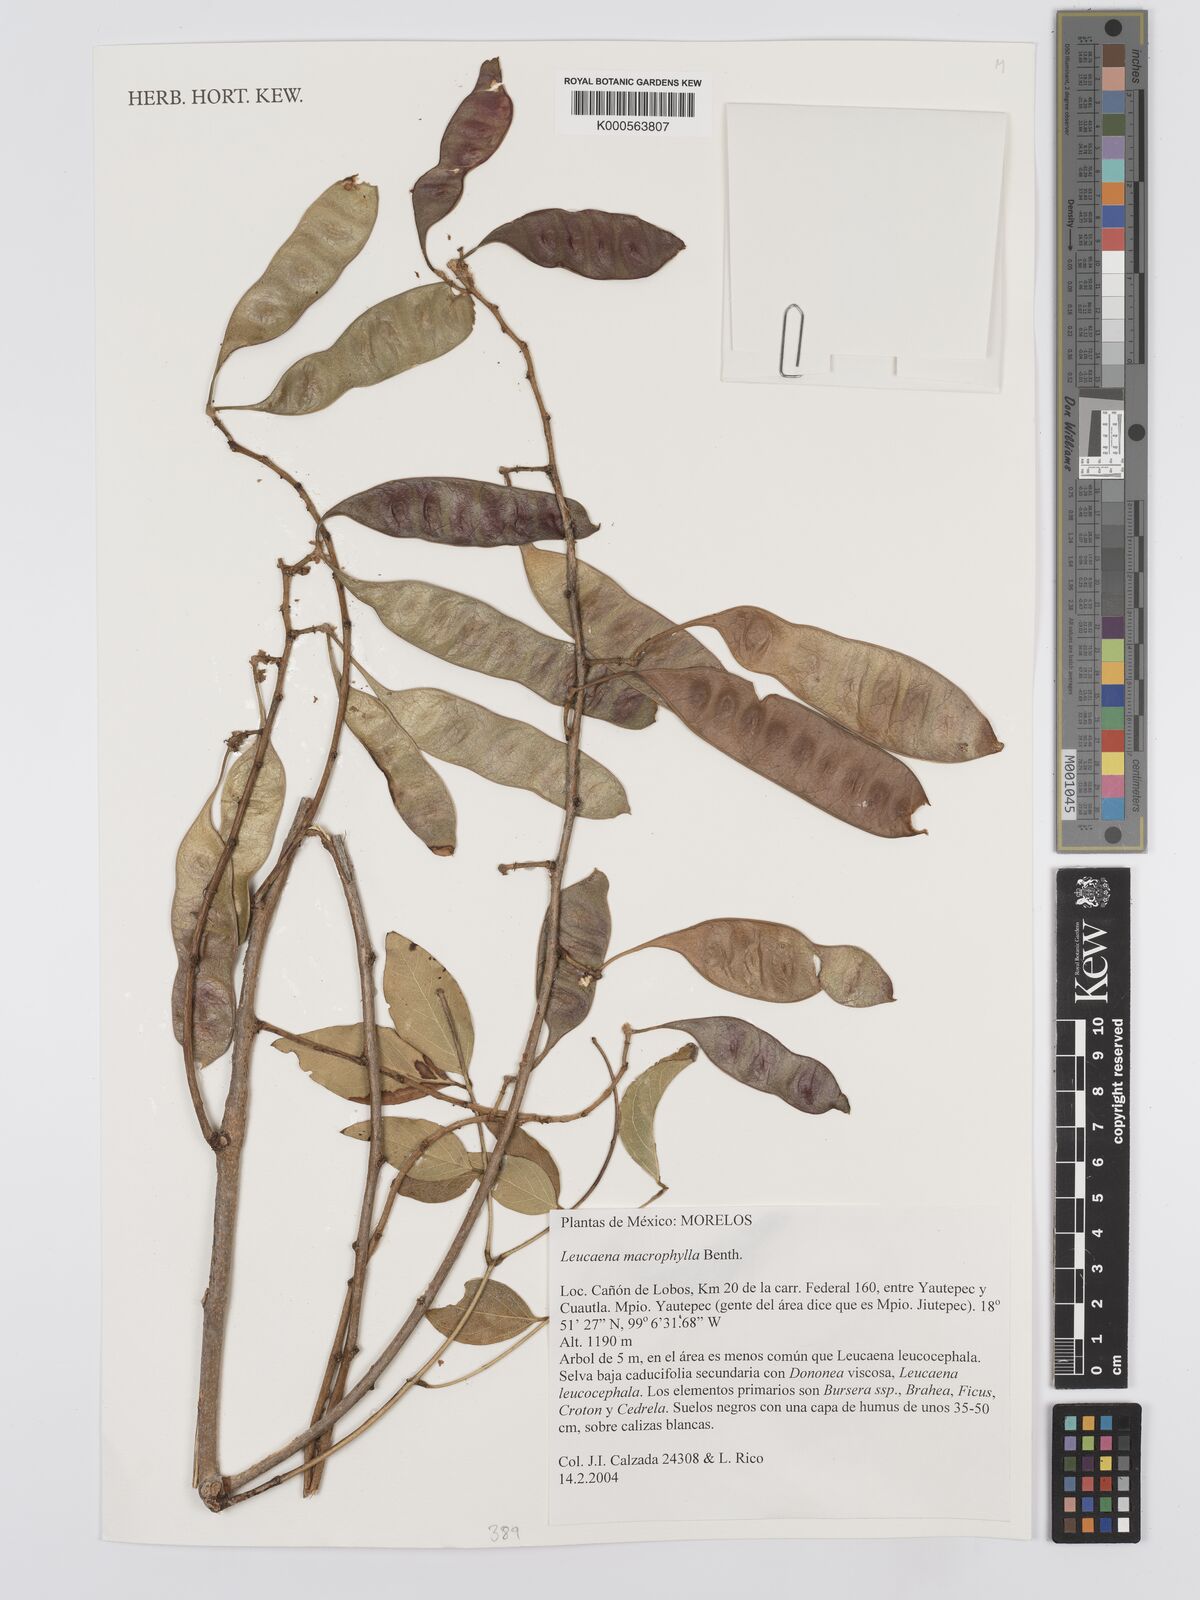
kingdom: Plantae
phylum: Tracheophyta
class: Magnoliopsida
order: Fabales
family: Fabaceae
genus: Leucaena
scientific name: Leucaena macrophylla
